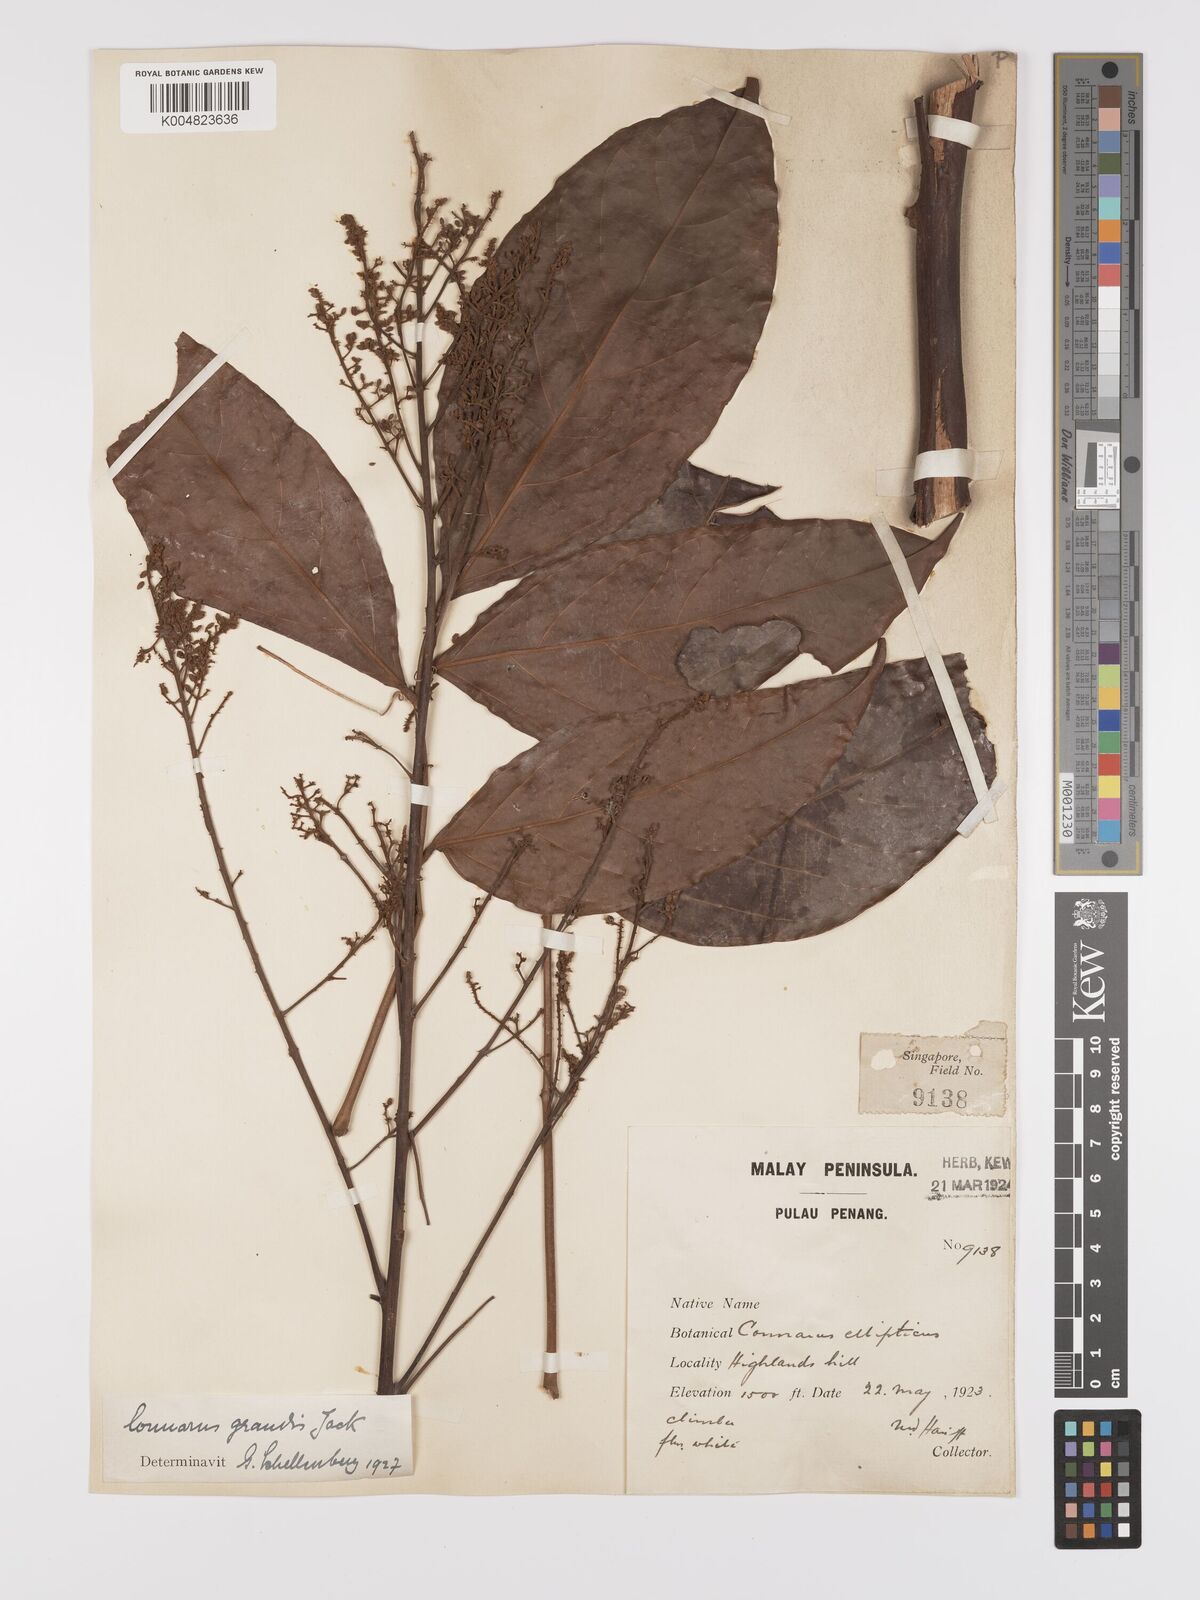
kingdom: Plantae
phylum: Tracheophyta
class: Magnoliopsida
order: Oxalidales
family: Connaraceae
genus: Connarus
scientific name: Connarus grandis
